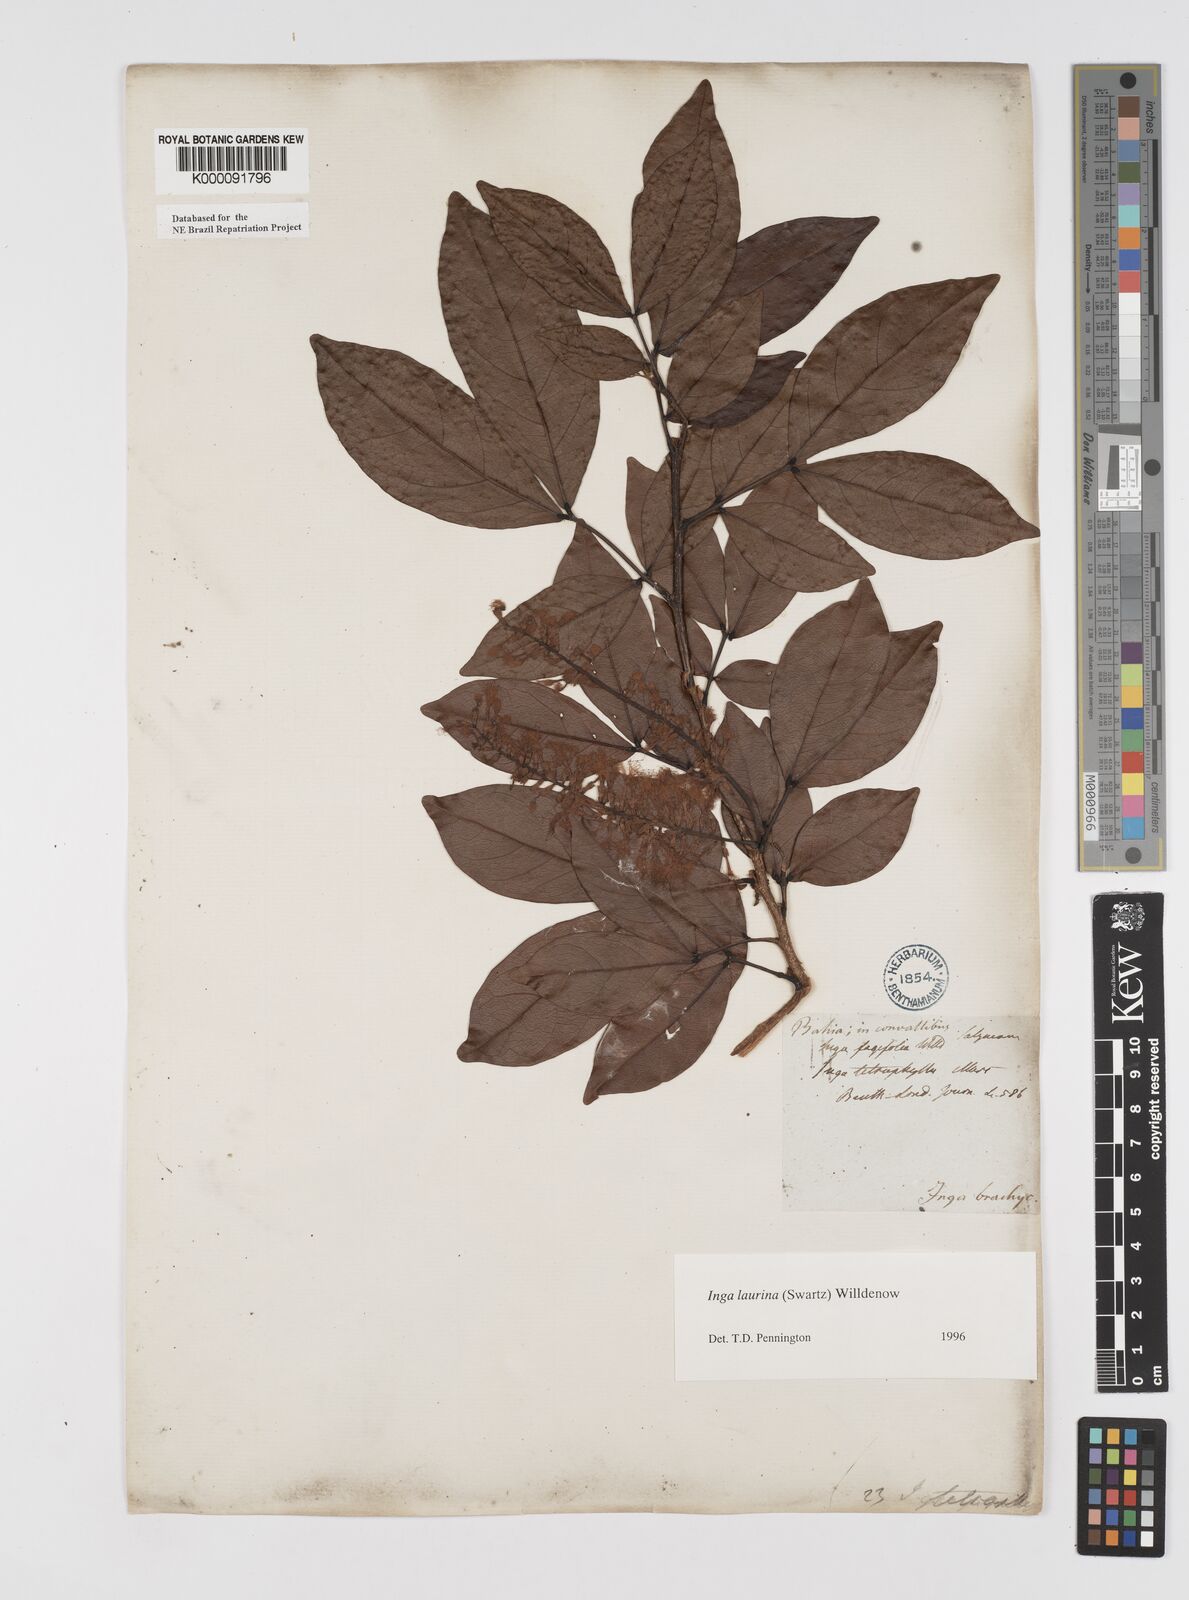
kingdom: Plantae
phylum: Tracheophyta
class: Magnoliopsida
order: Fabales
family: Fabaceae
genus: Inga
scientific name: Inga laurina
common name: Red wood
